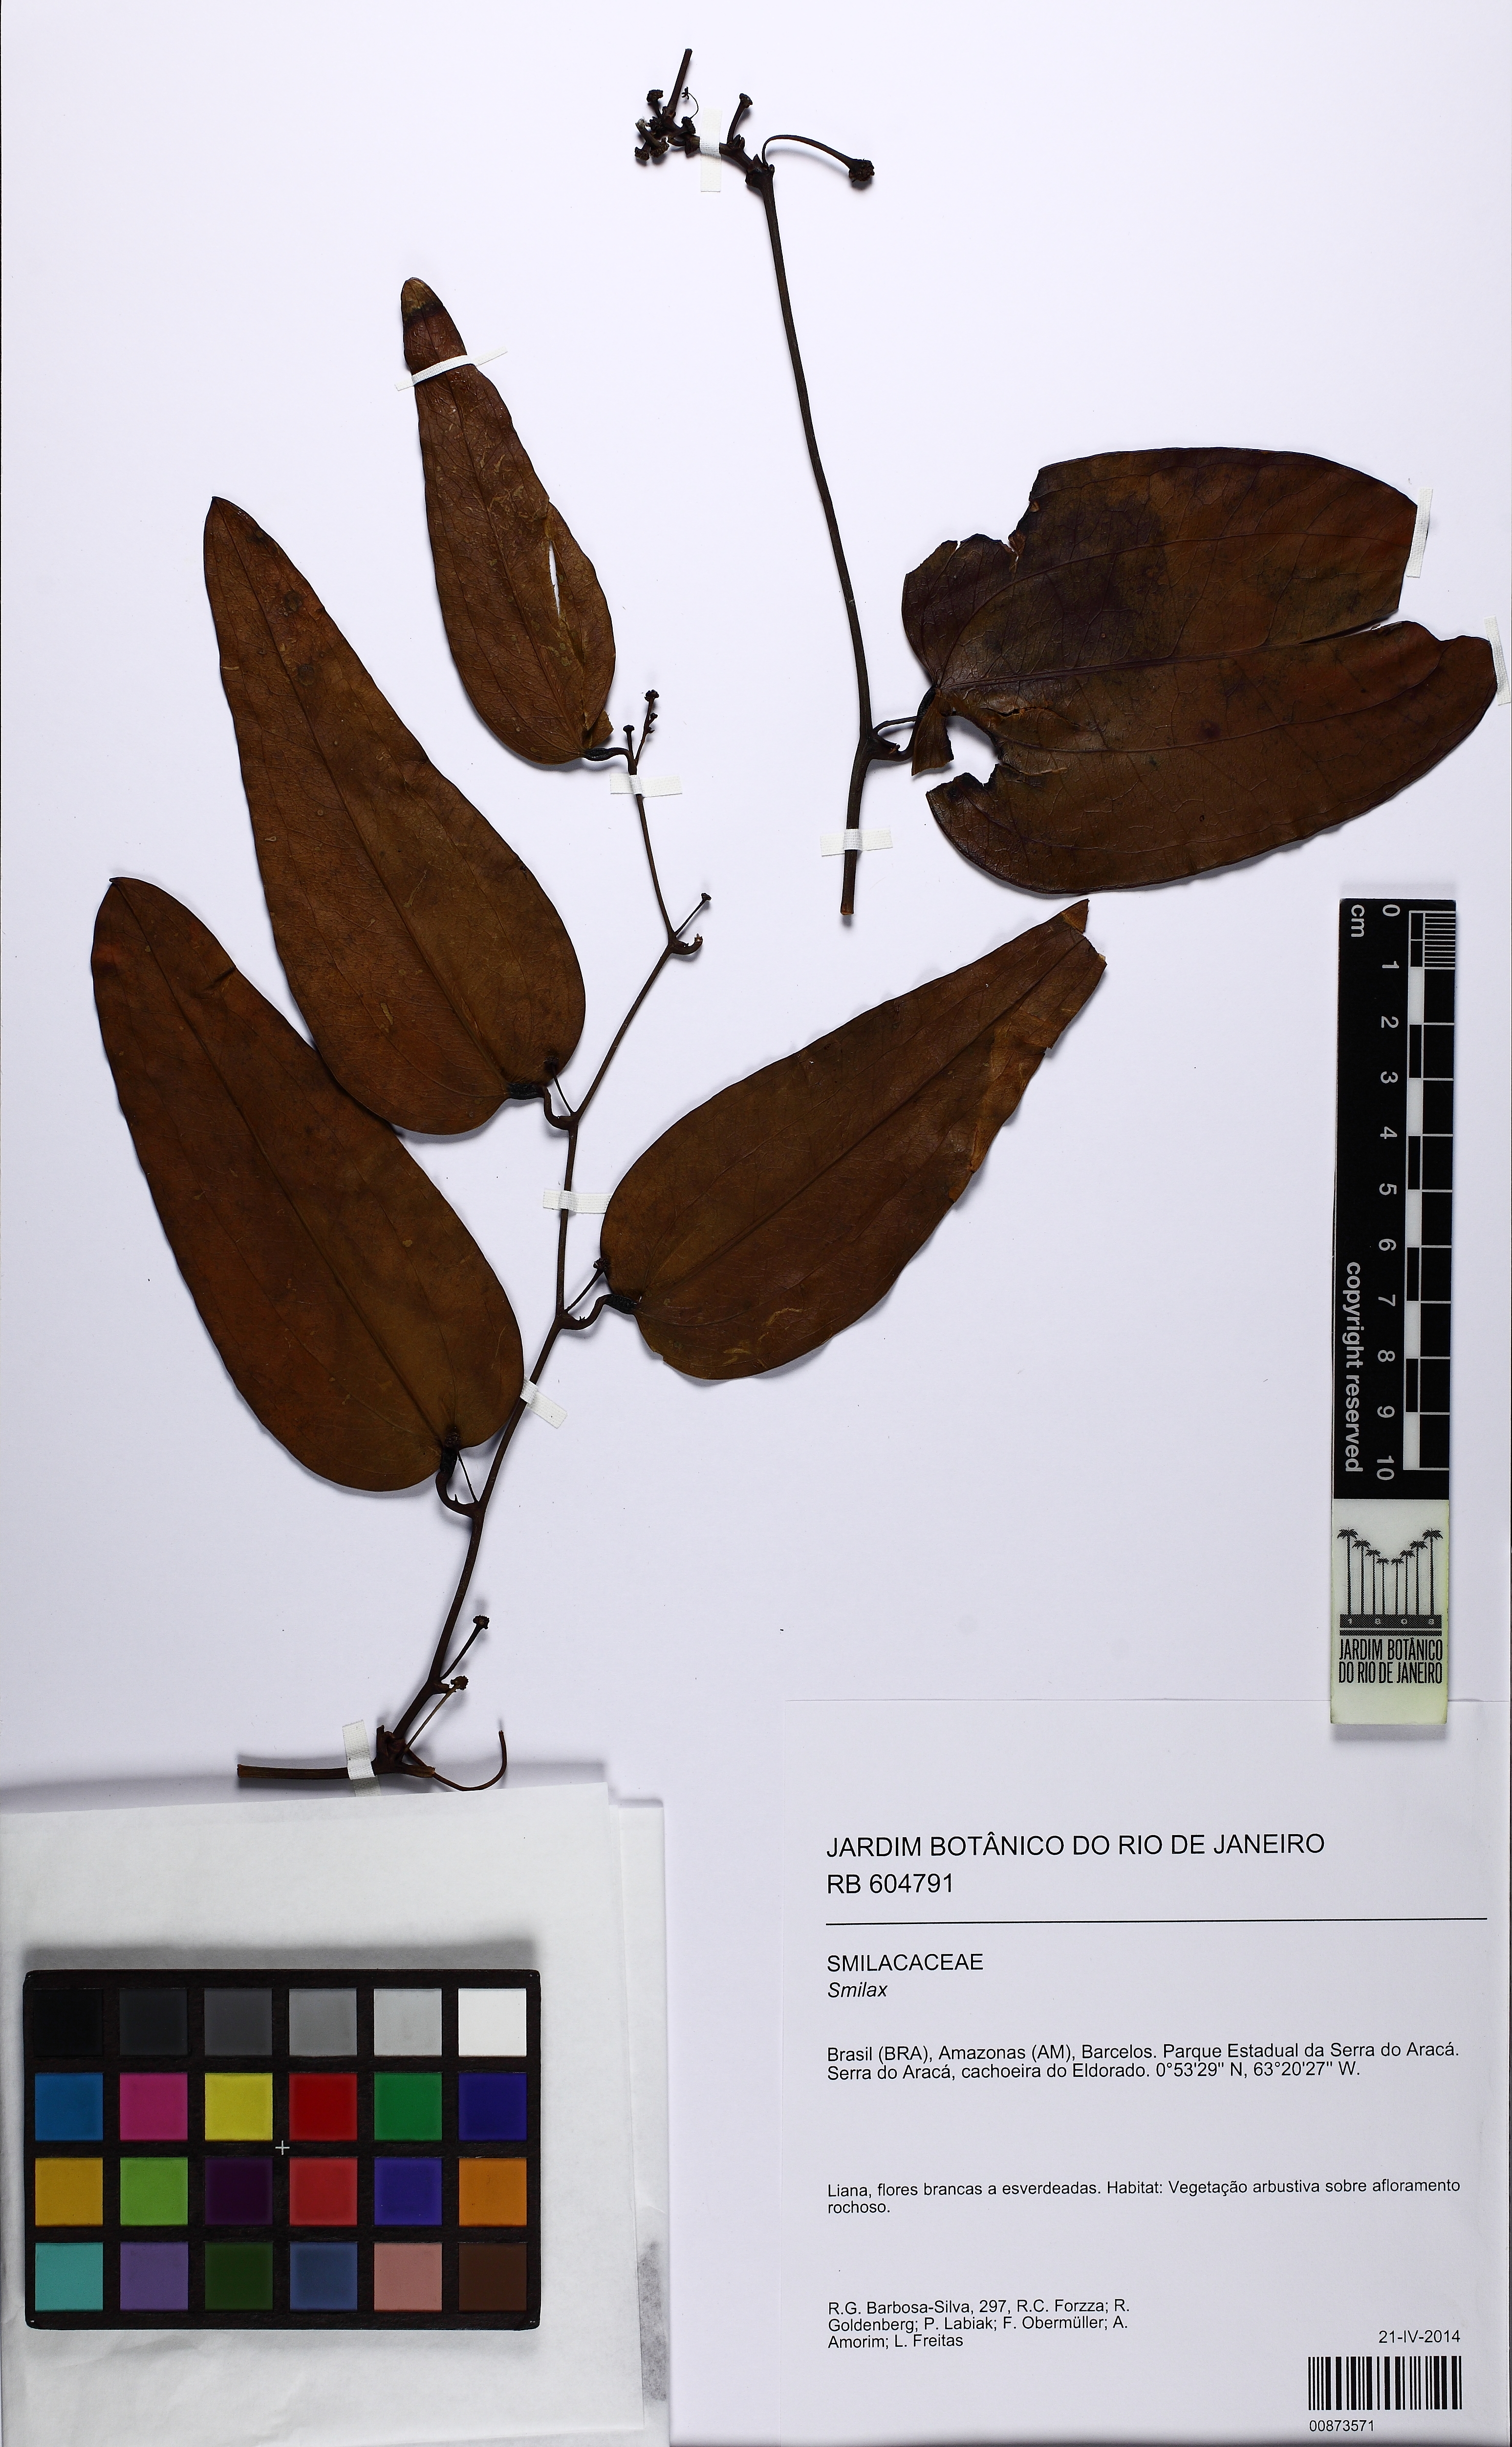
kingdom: Plantae
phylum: Tracheophyta
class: Liliopsida
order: Liliales
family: Smilacaceae
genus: Smilax
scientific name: Smilax
